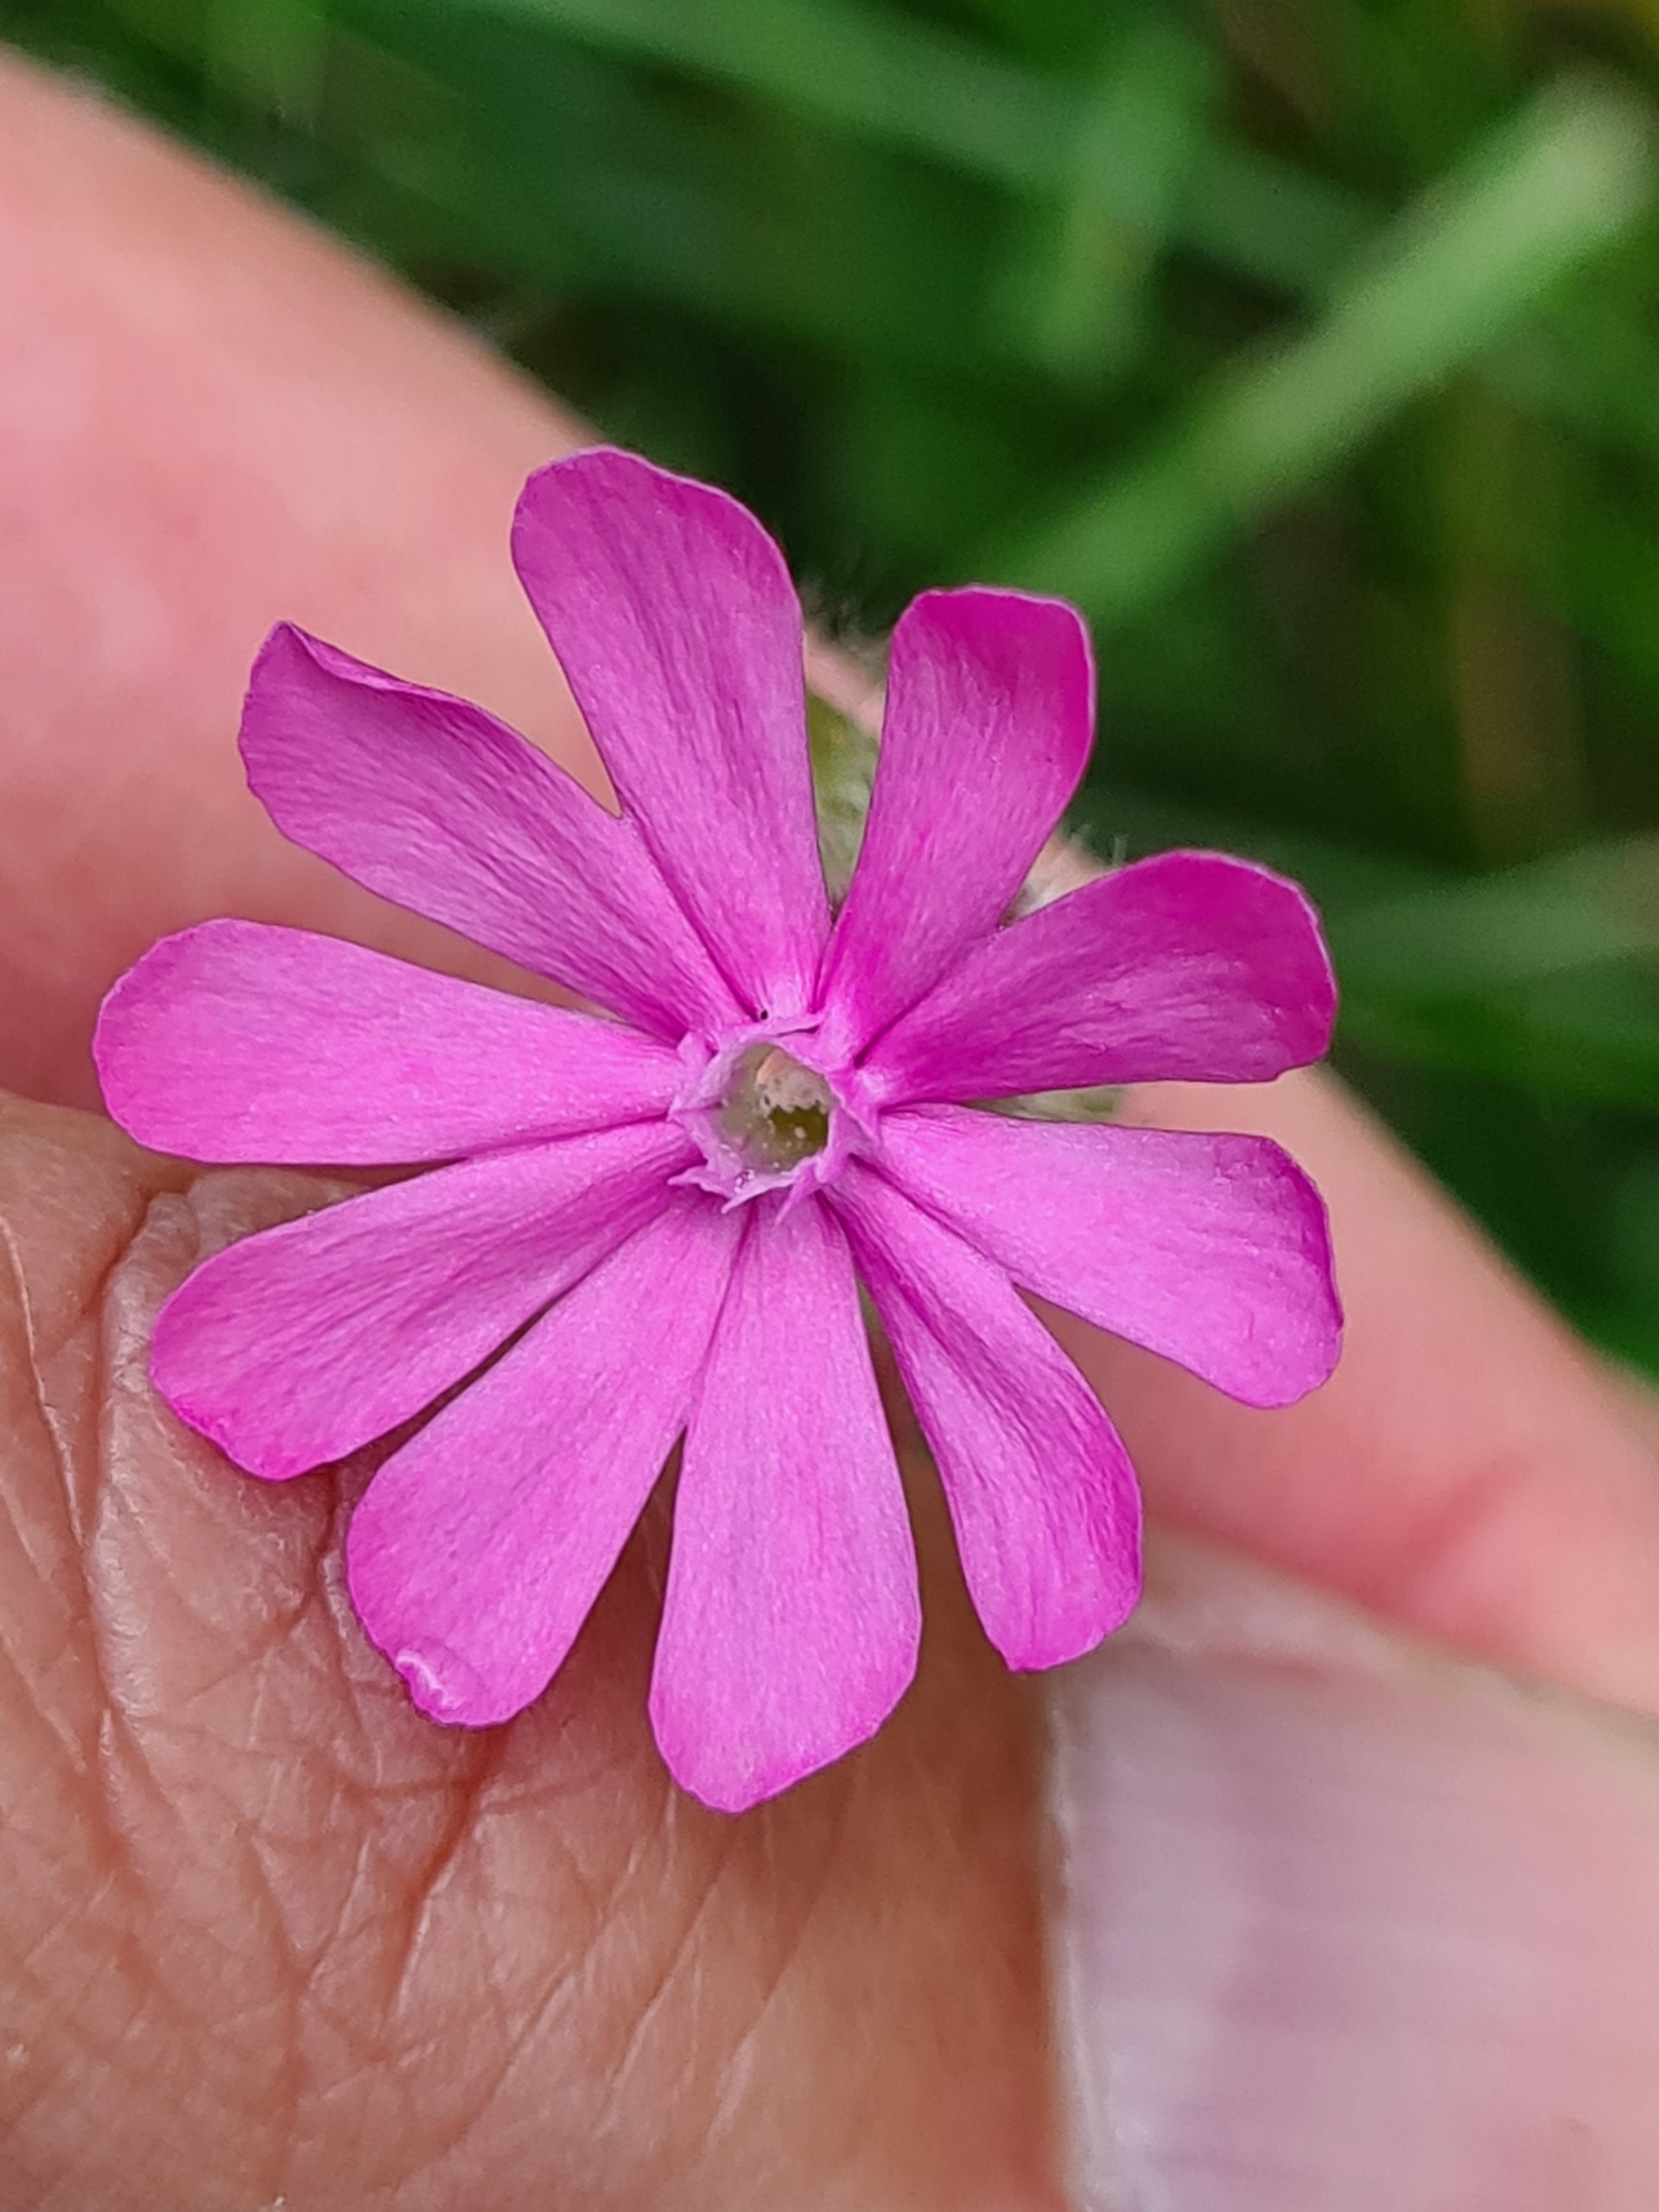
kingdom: Plantae
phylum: Tracheophyta
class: Magnoliopsida
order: Caryophyllales
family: Caryophyllaceae
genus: Silene
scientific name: Silene dioica
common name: Dagpragtstjerne
